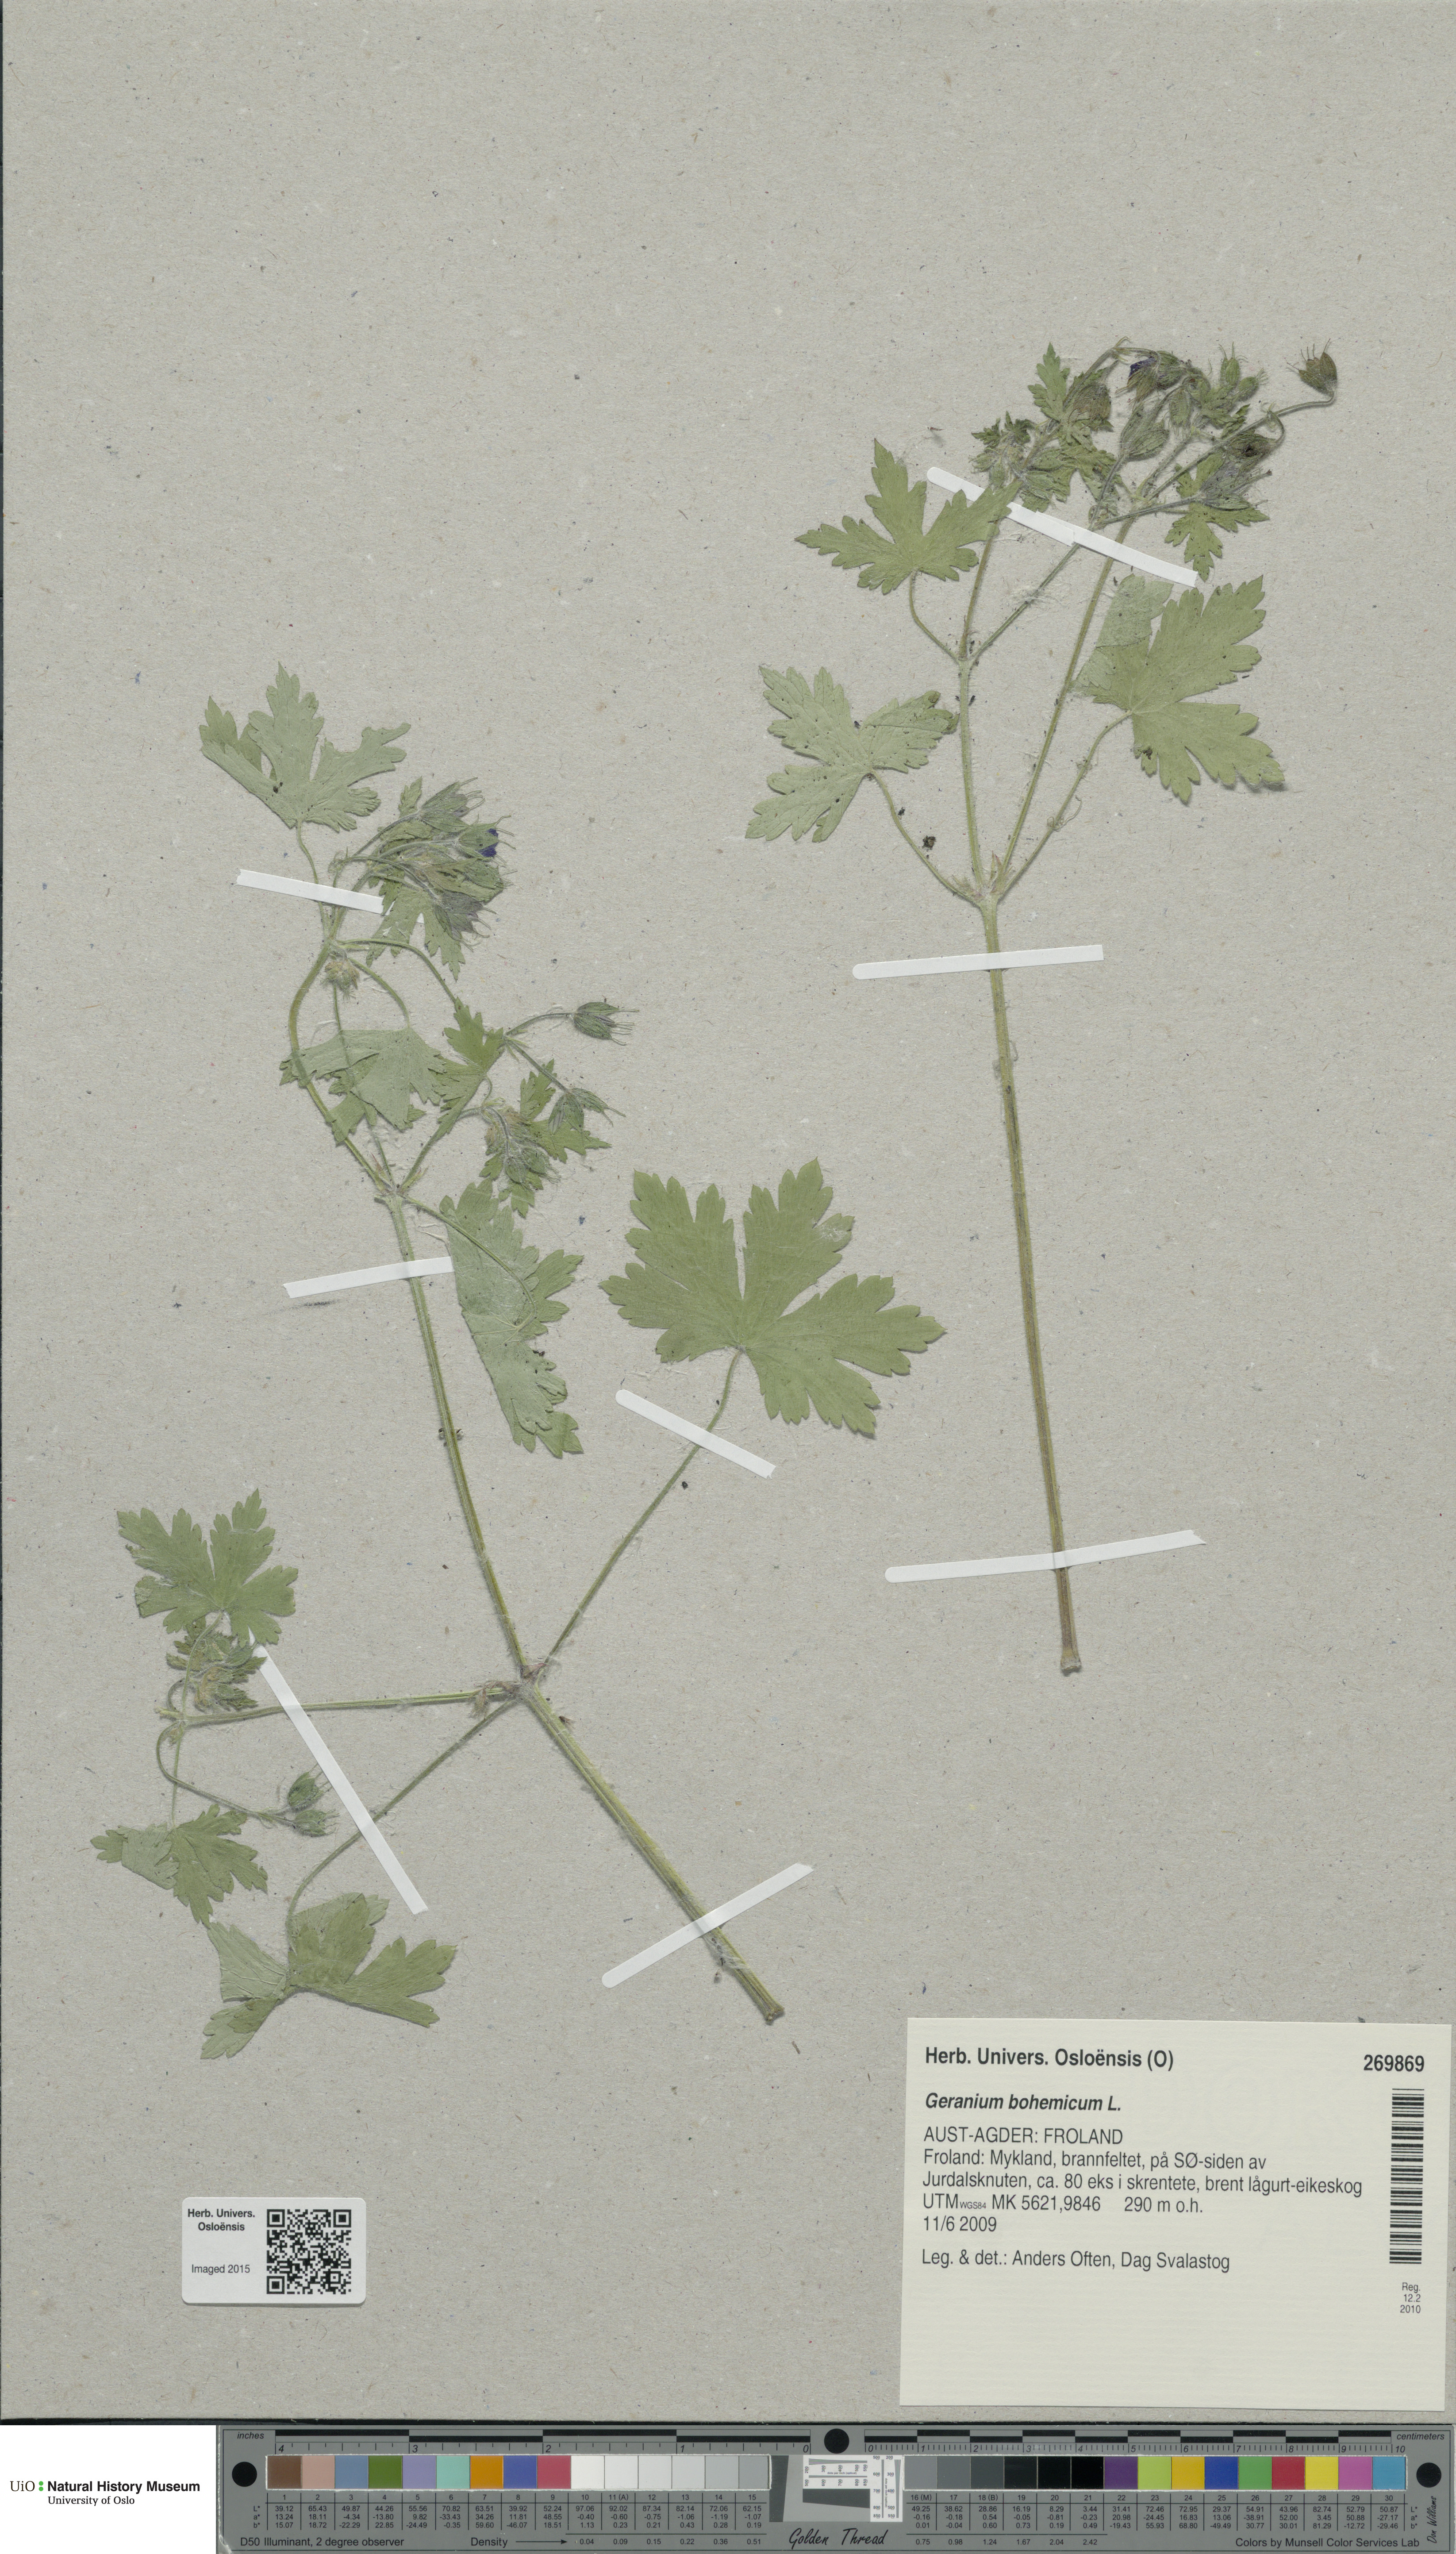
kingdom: Plantae
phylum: Tracheophyta
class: Magnoliopsida
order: Geraniales
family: Geraniaceae
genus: Geranium
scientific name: Geranium bohemicum
